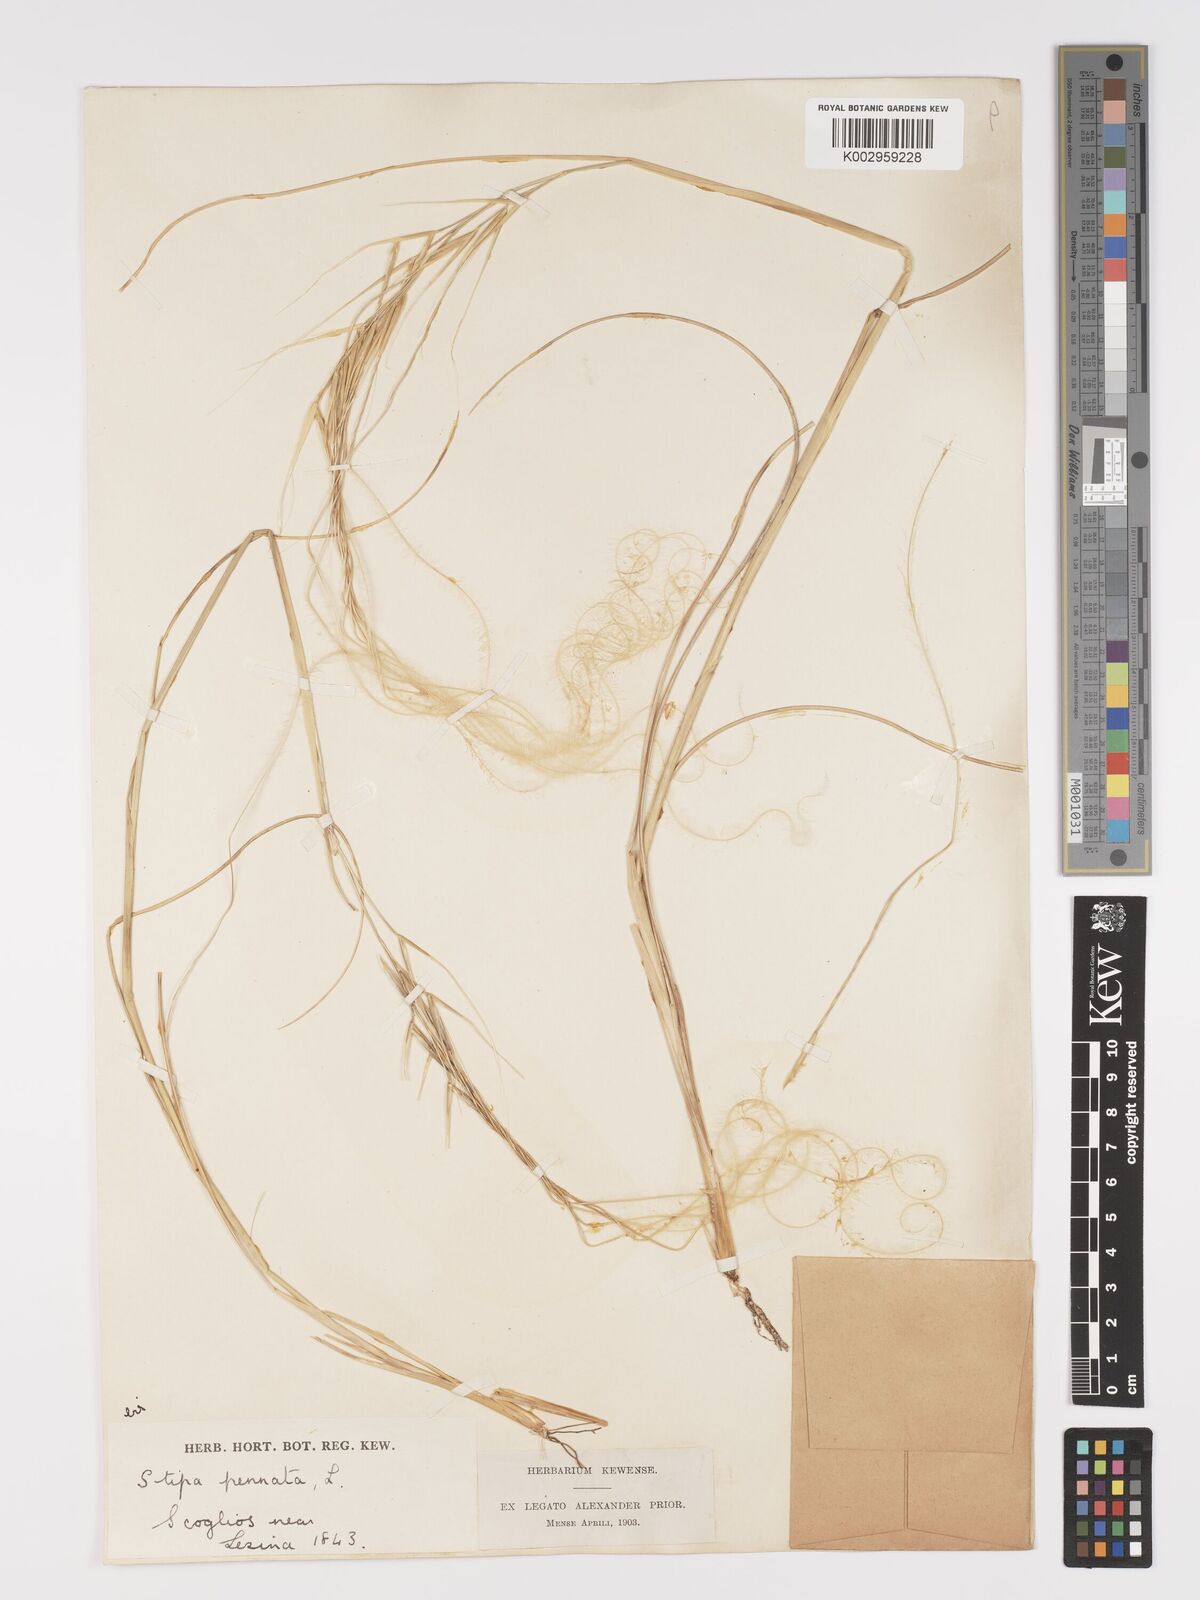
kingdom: Plantae
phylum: Tracheophyta
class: Liliopsida
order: Poales
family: Poaceae
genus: Stipa
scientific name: Stipa pennata
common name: European feather grass
